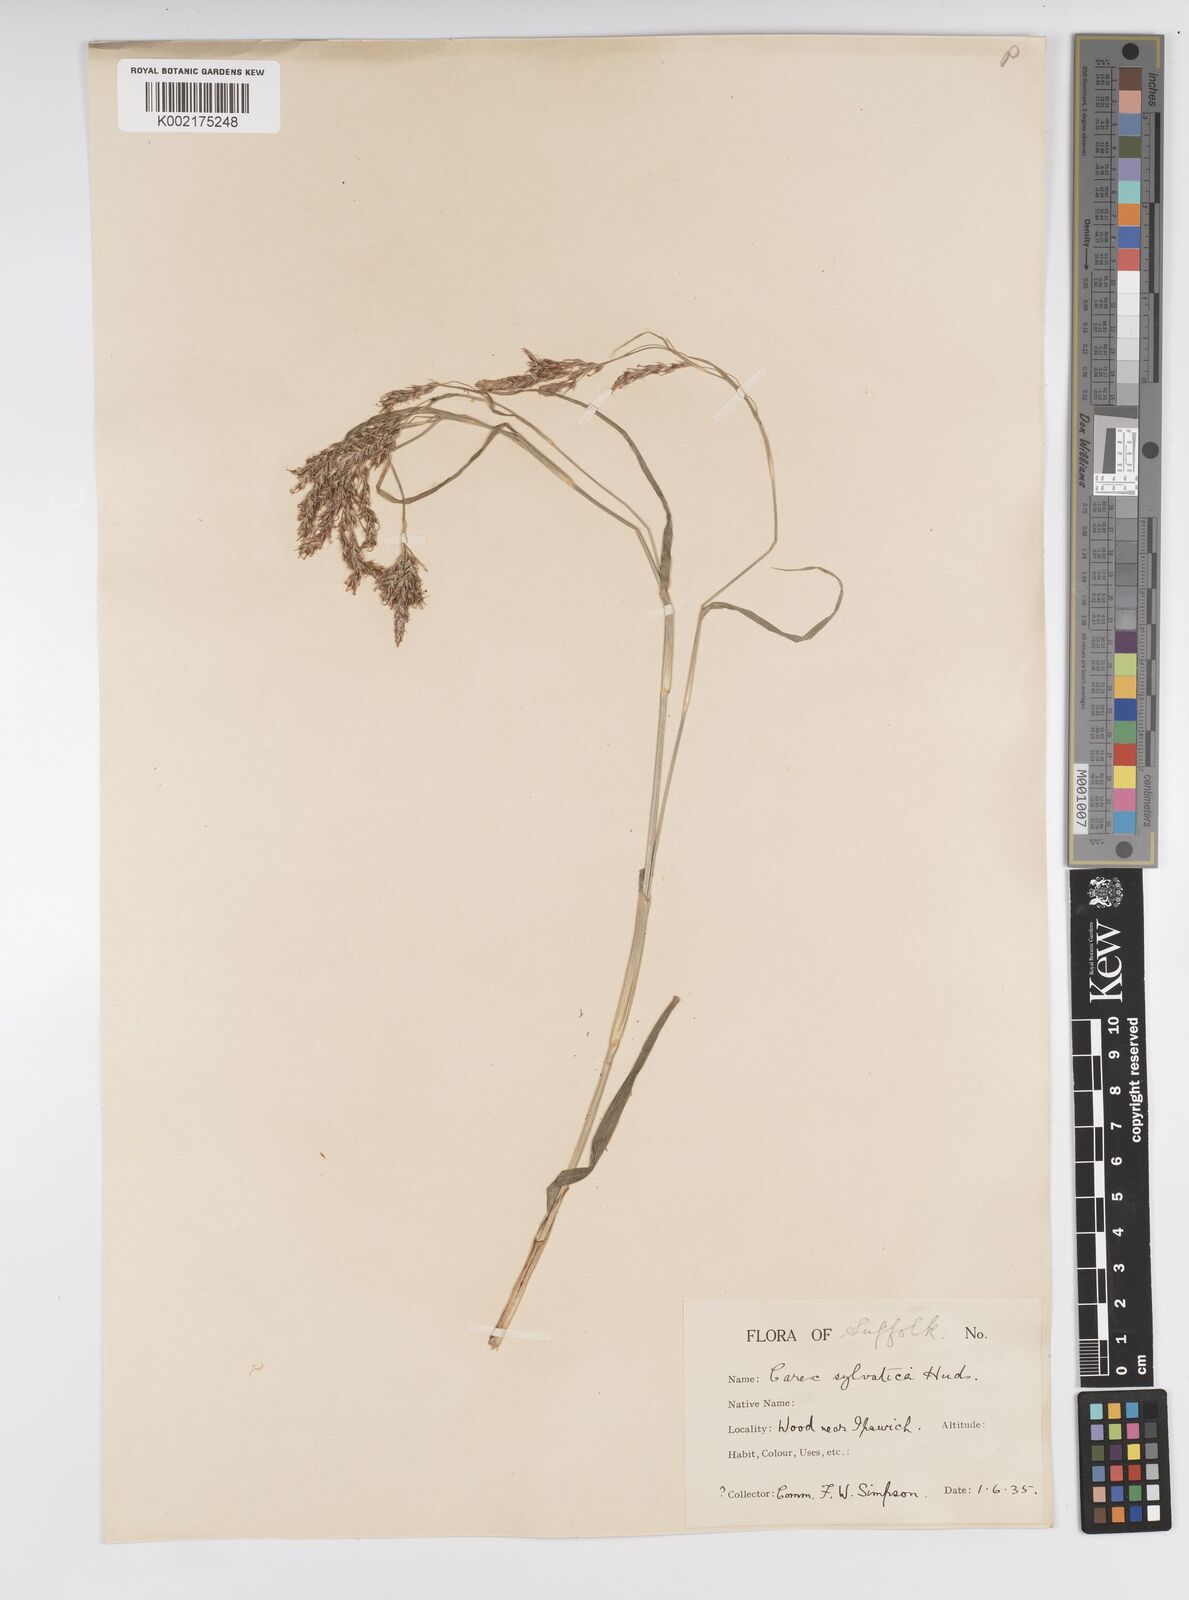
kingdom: Plantae
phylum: Tracheophyta
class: Liliopsida
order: Poales
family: Cyperaceae
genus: Carex
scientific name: Carex sylvatica
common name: Wood-sedge
